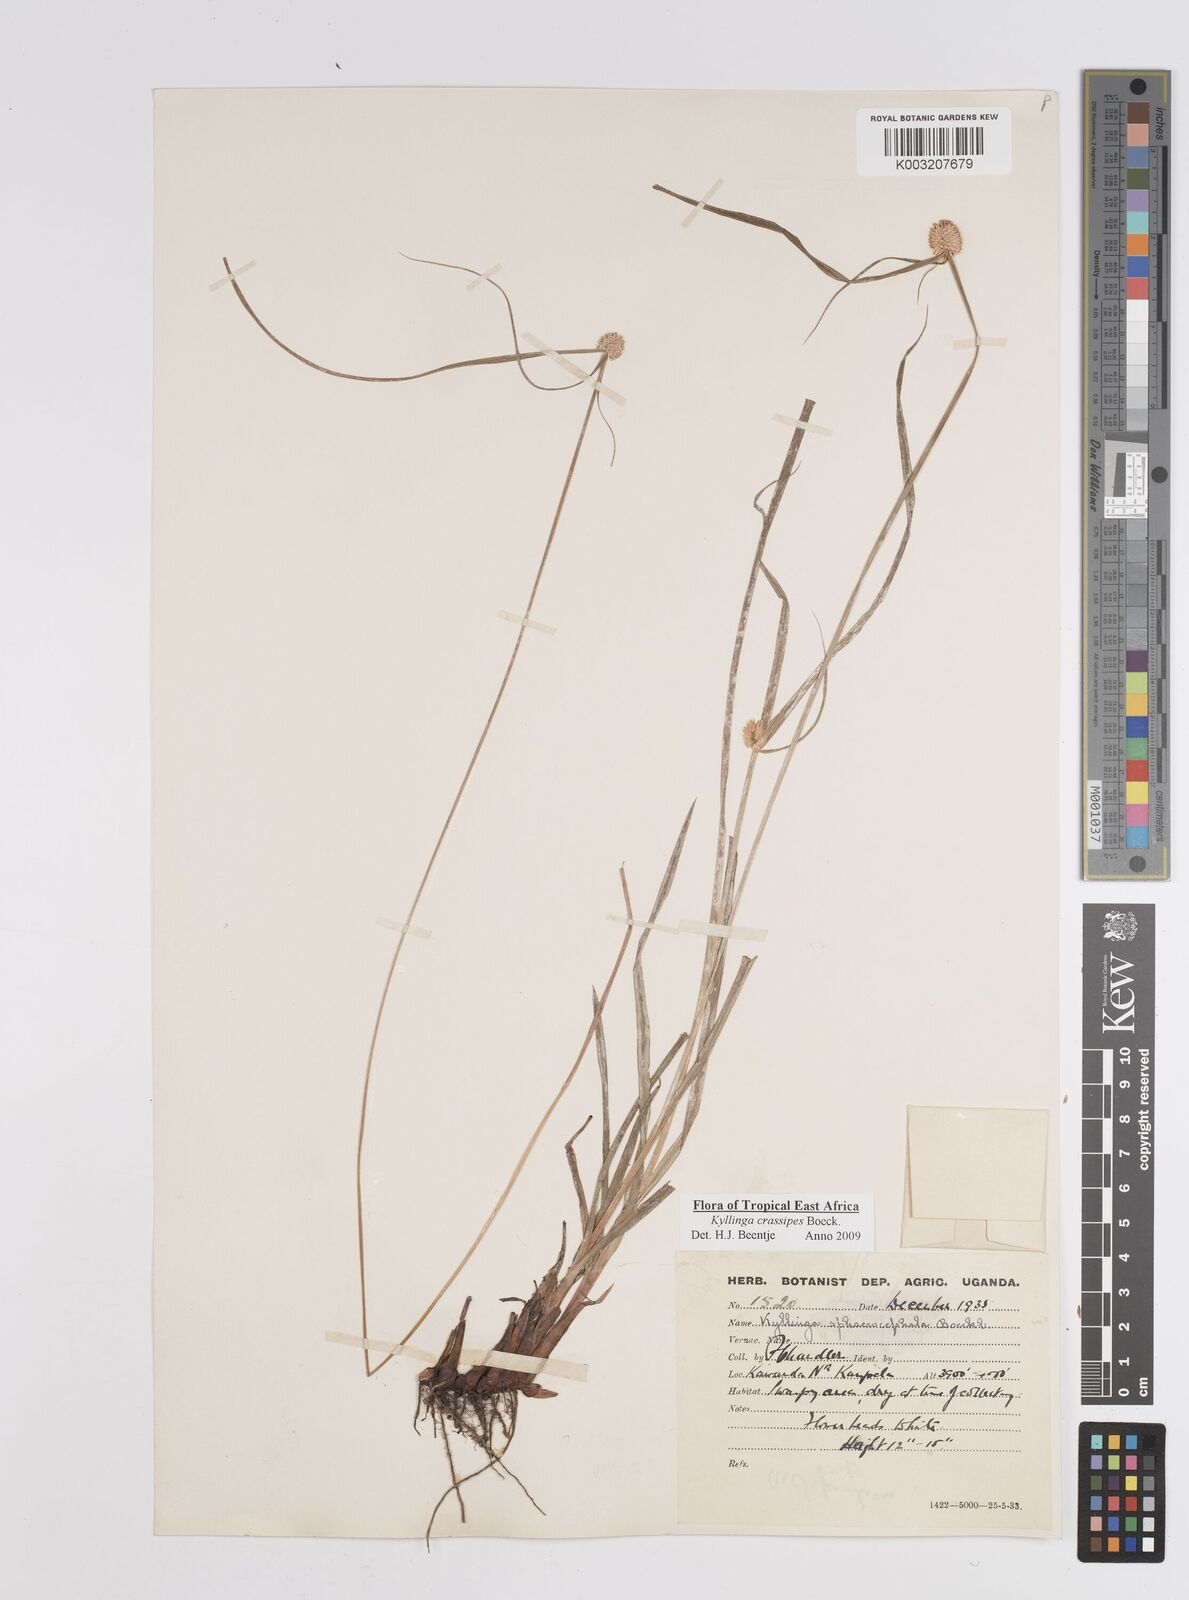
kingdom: Plantae
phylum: Tracheophyta
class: Liliopsida
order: Poales
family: Cyperaceae
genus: Cyperus
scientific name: Cyperus crassipes
